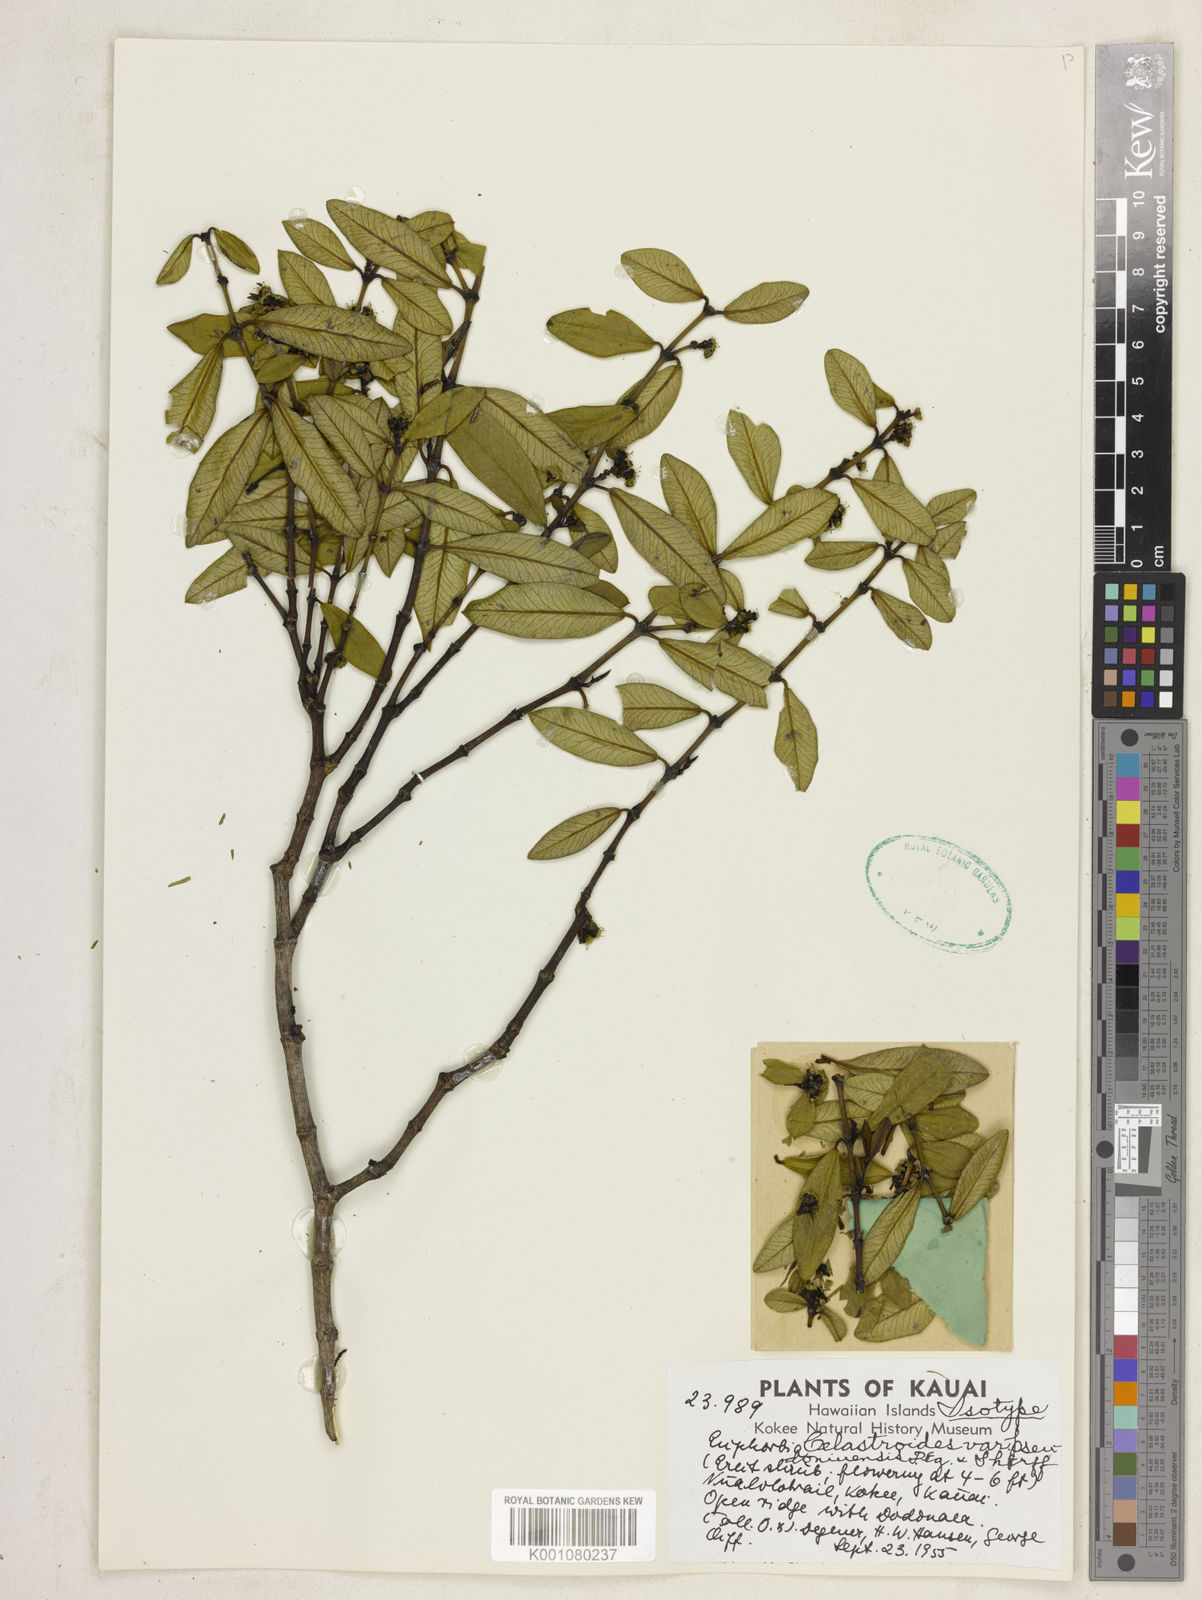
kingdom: Plantae
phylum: Tracheophyta
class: Magnoliopsida
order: Malpighiales
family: Euphorbiaceae
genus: Euphorbia
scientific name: Euphorbia celastroides
